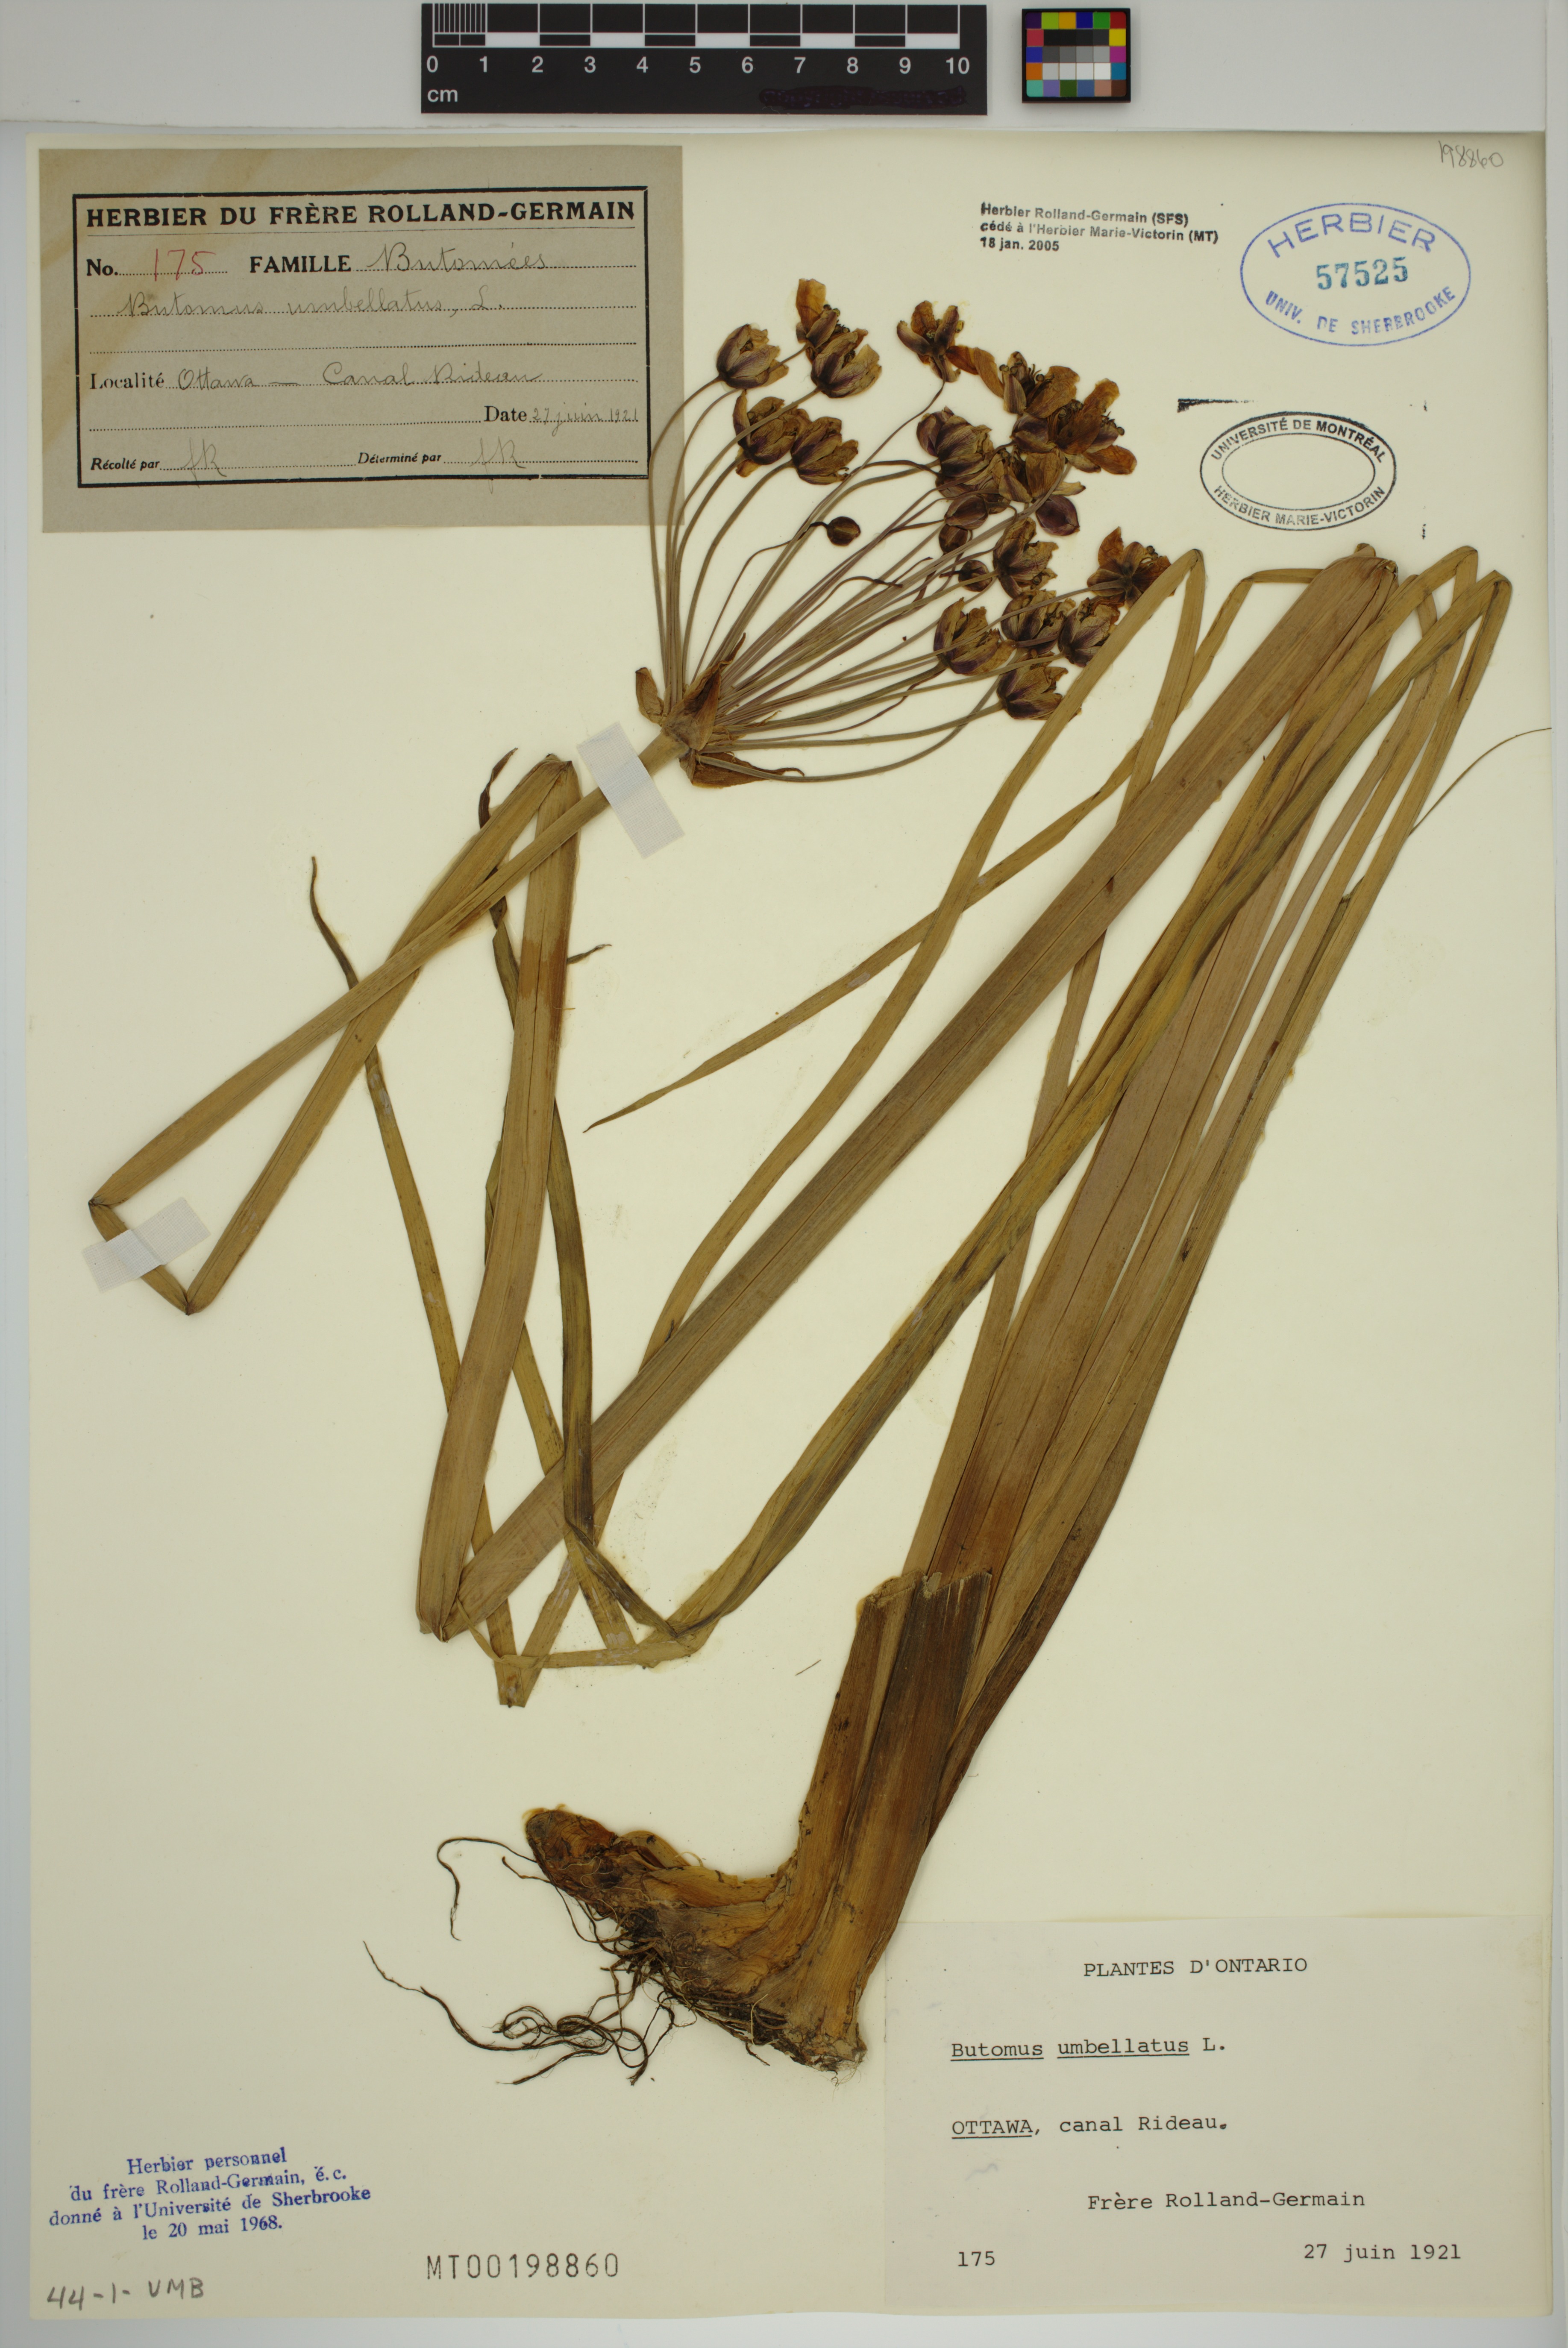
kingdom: Plantae
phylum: Tracheophyta
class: Liliopsida
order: Alismatales
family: Butomaceae
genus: Butomus
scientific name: Butomus umbellatus
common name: Flowering-rush
